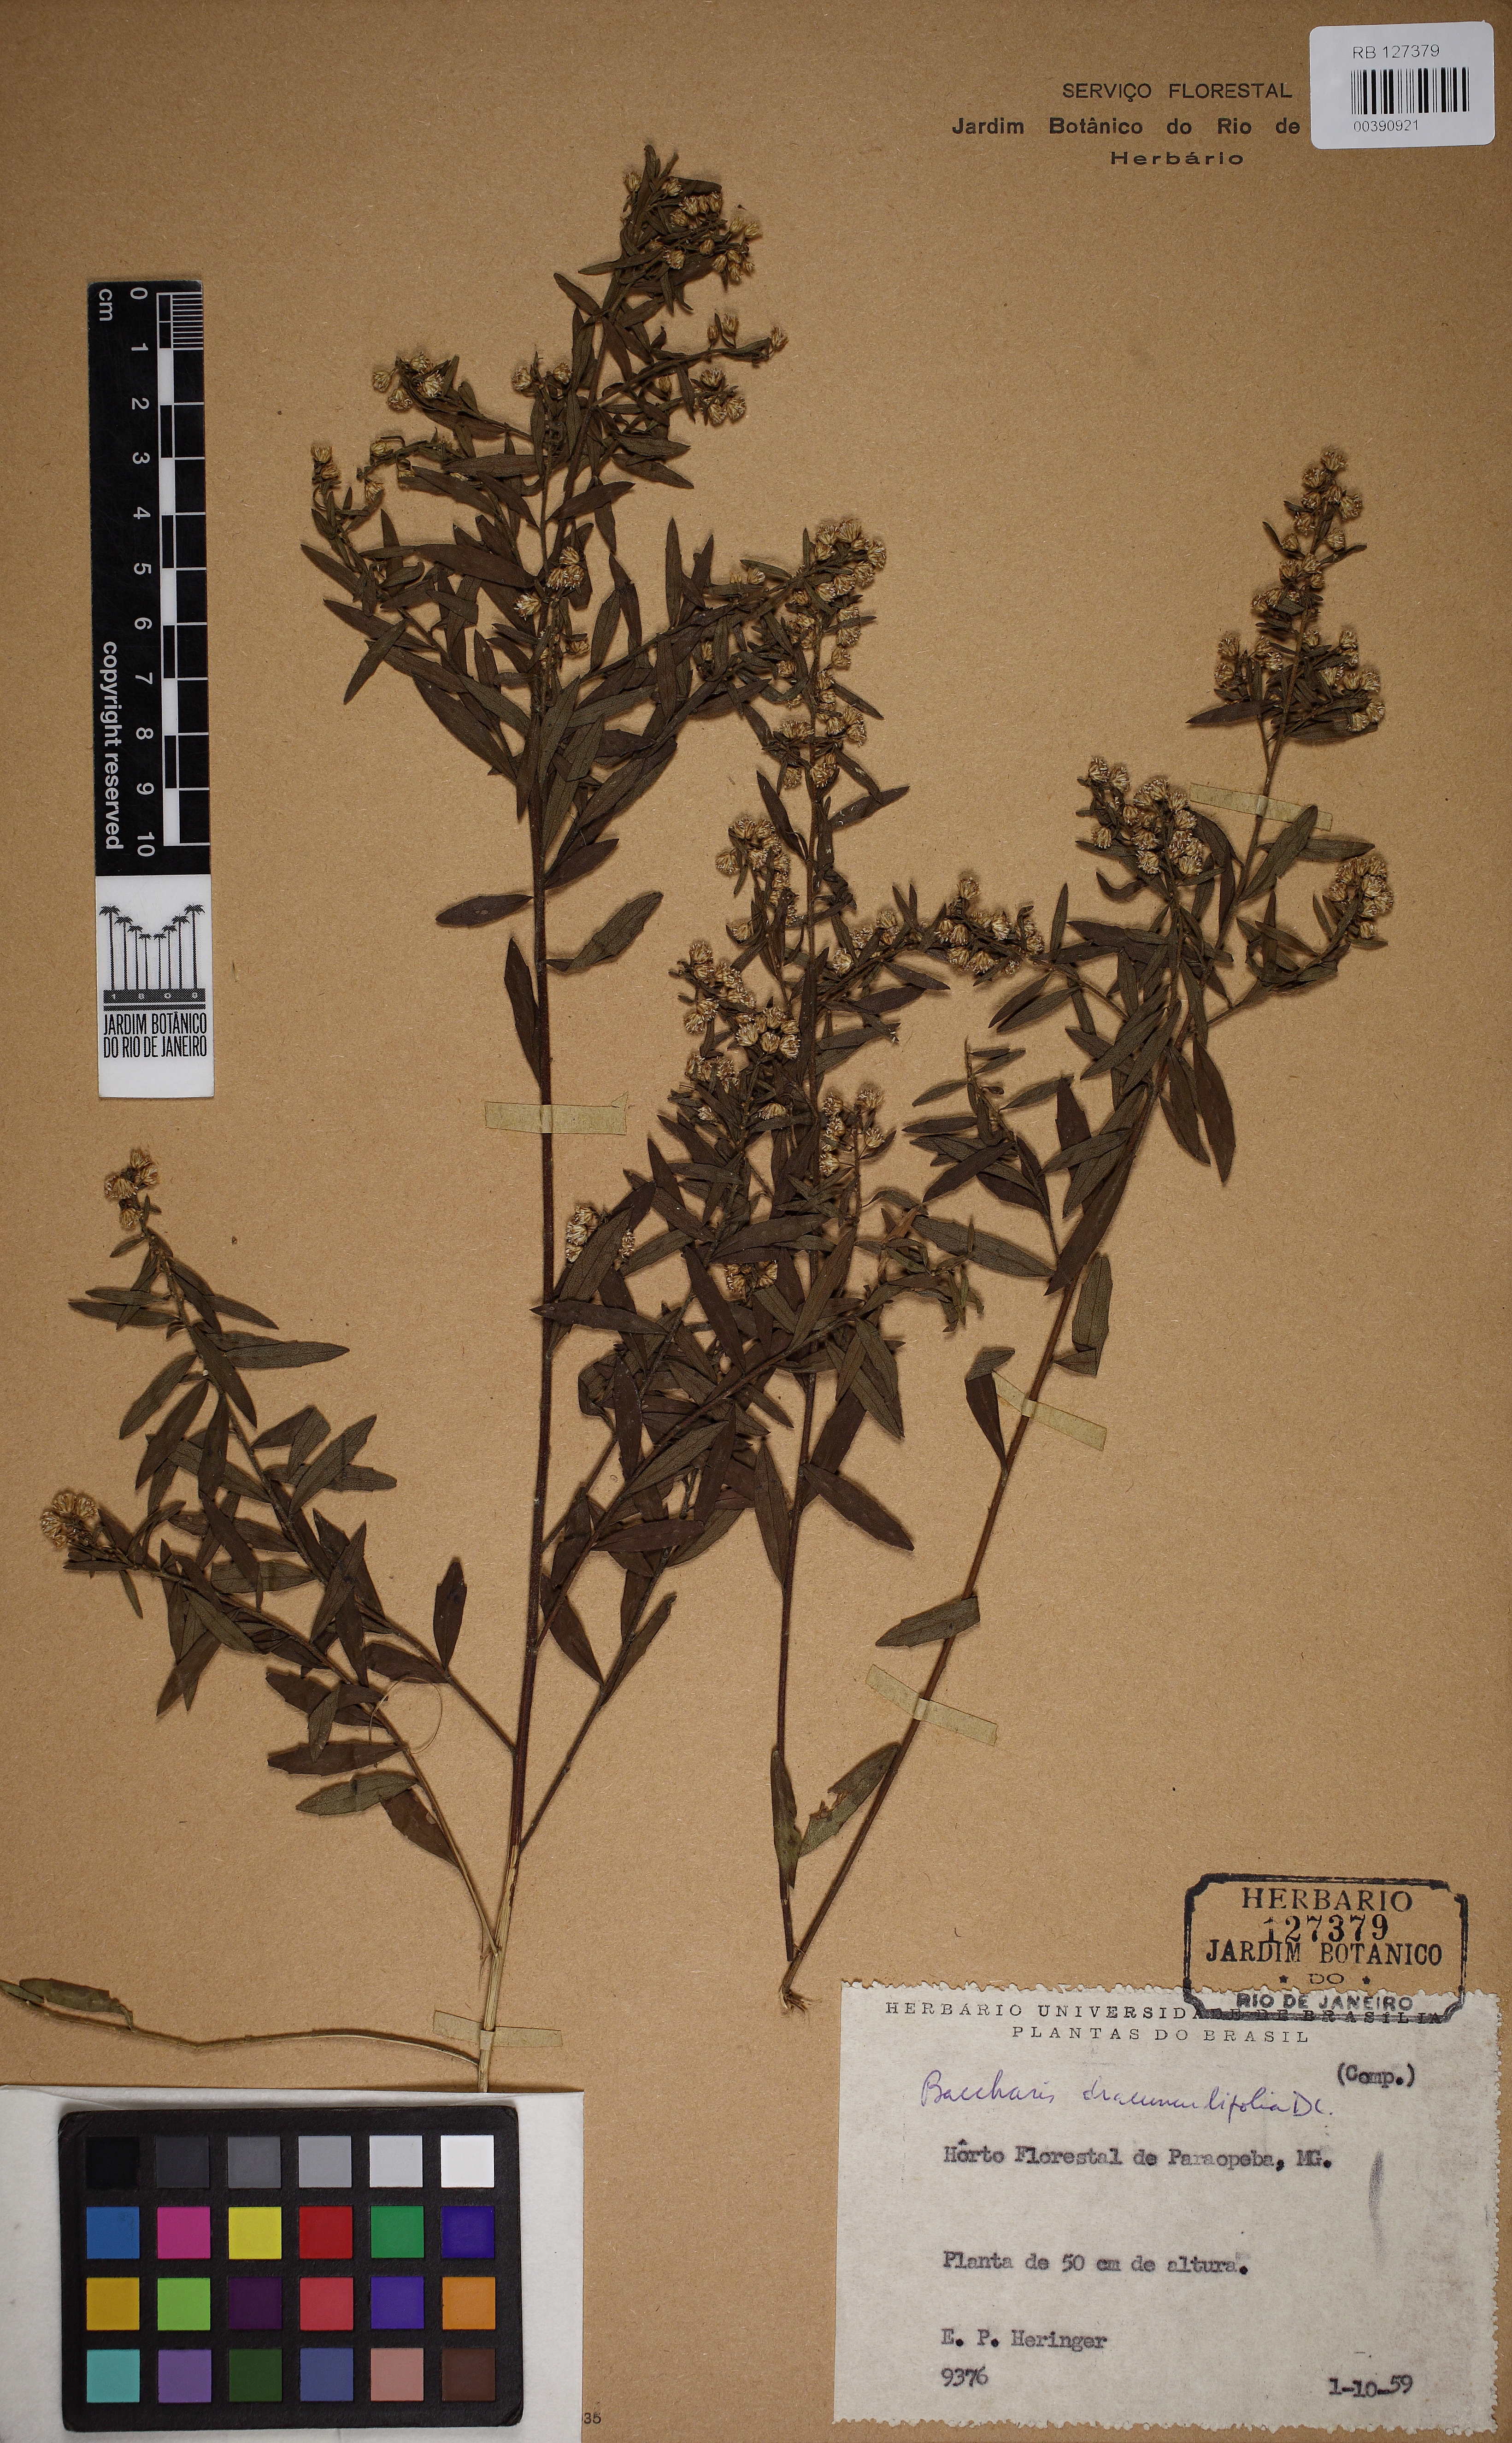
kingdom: Plantae
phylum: Tracheophyta
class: Magnoliopsida
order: Asterales
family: Asteraceae
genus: Baccharis
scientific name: Baccharis dracunculifolia
